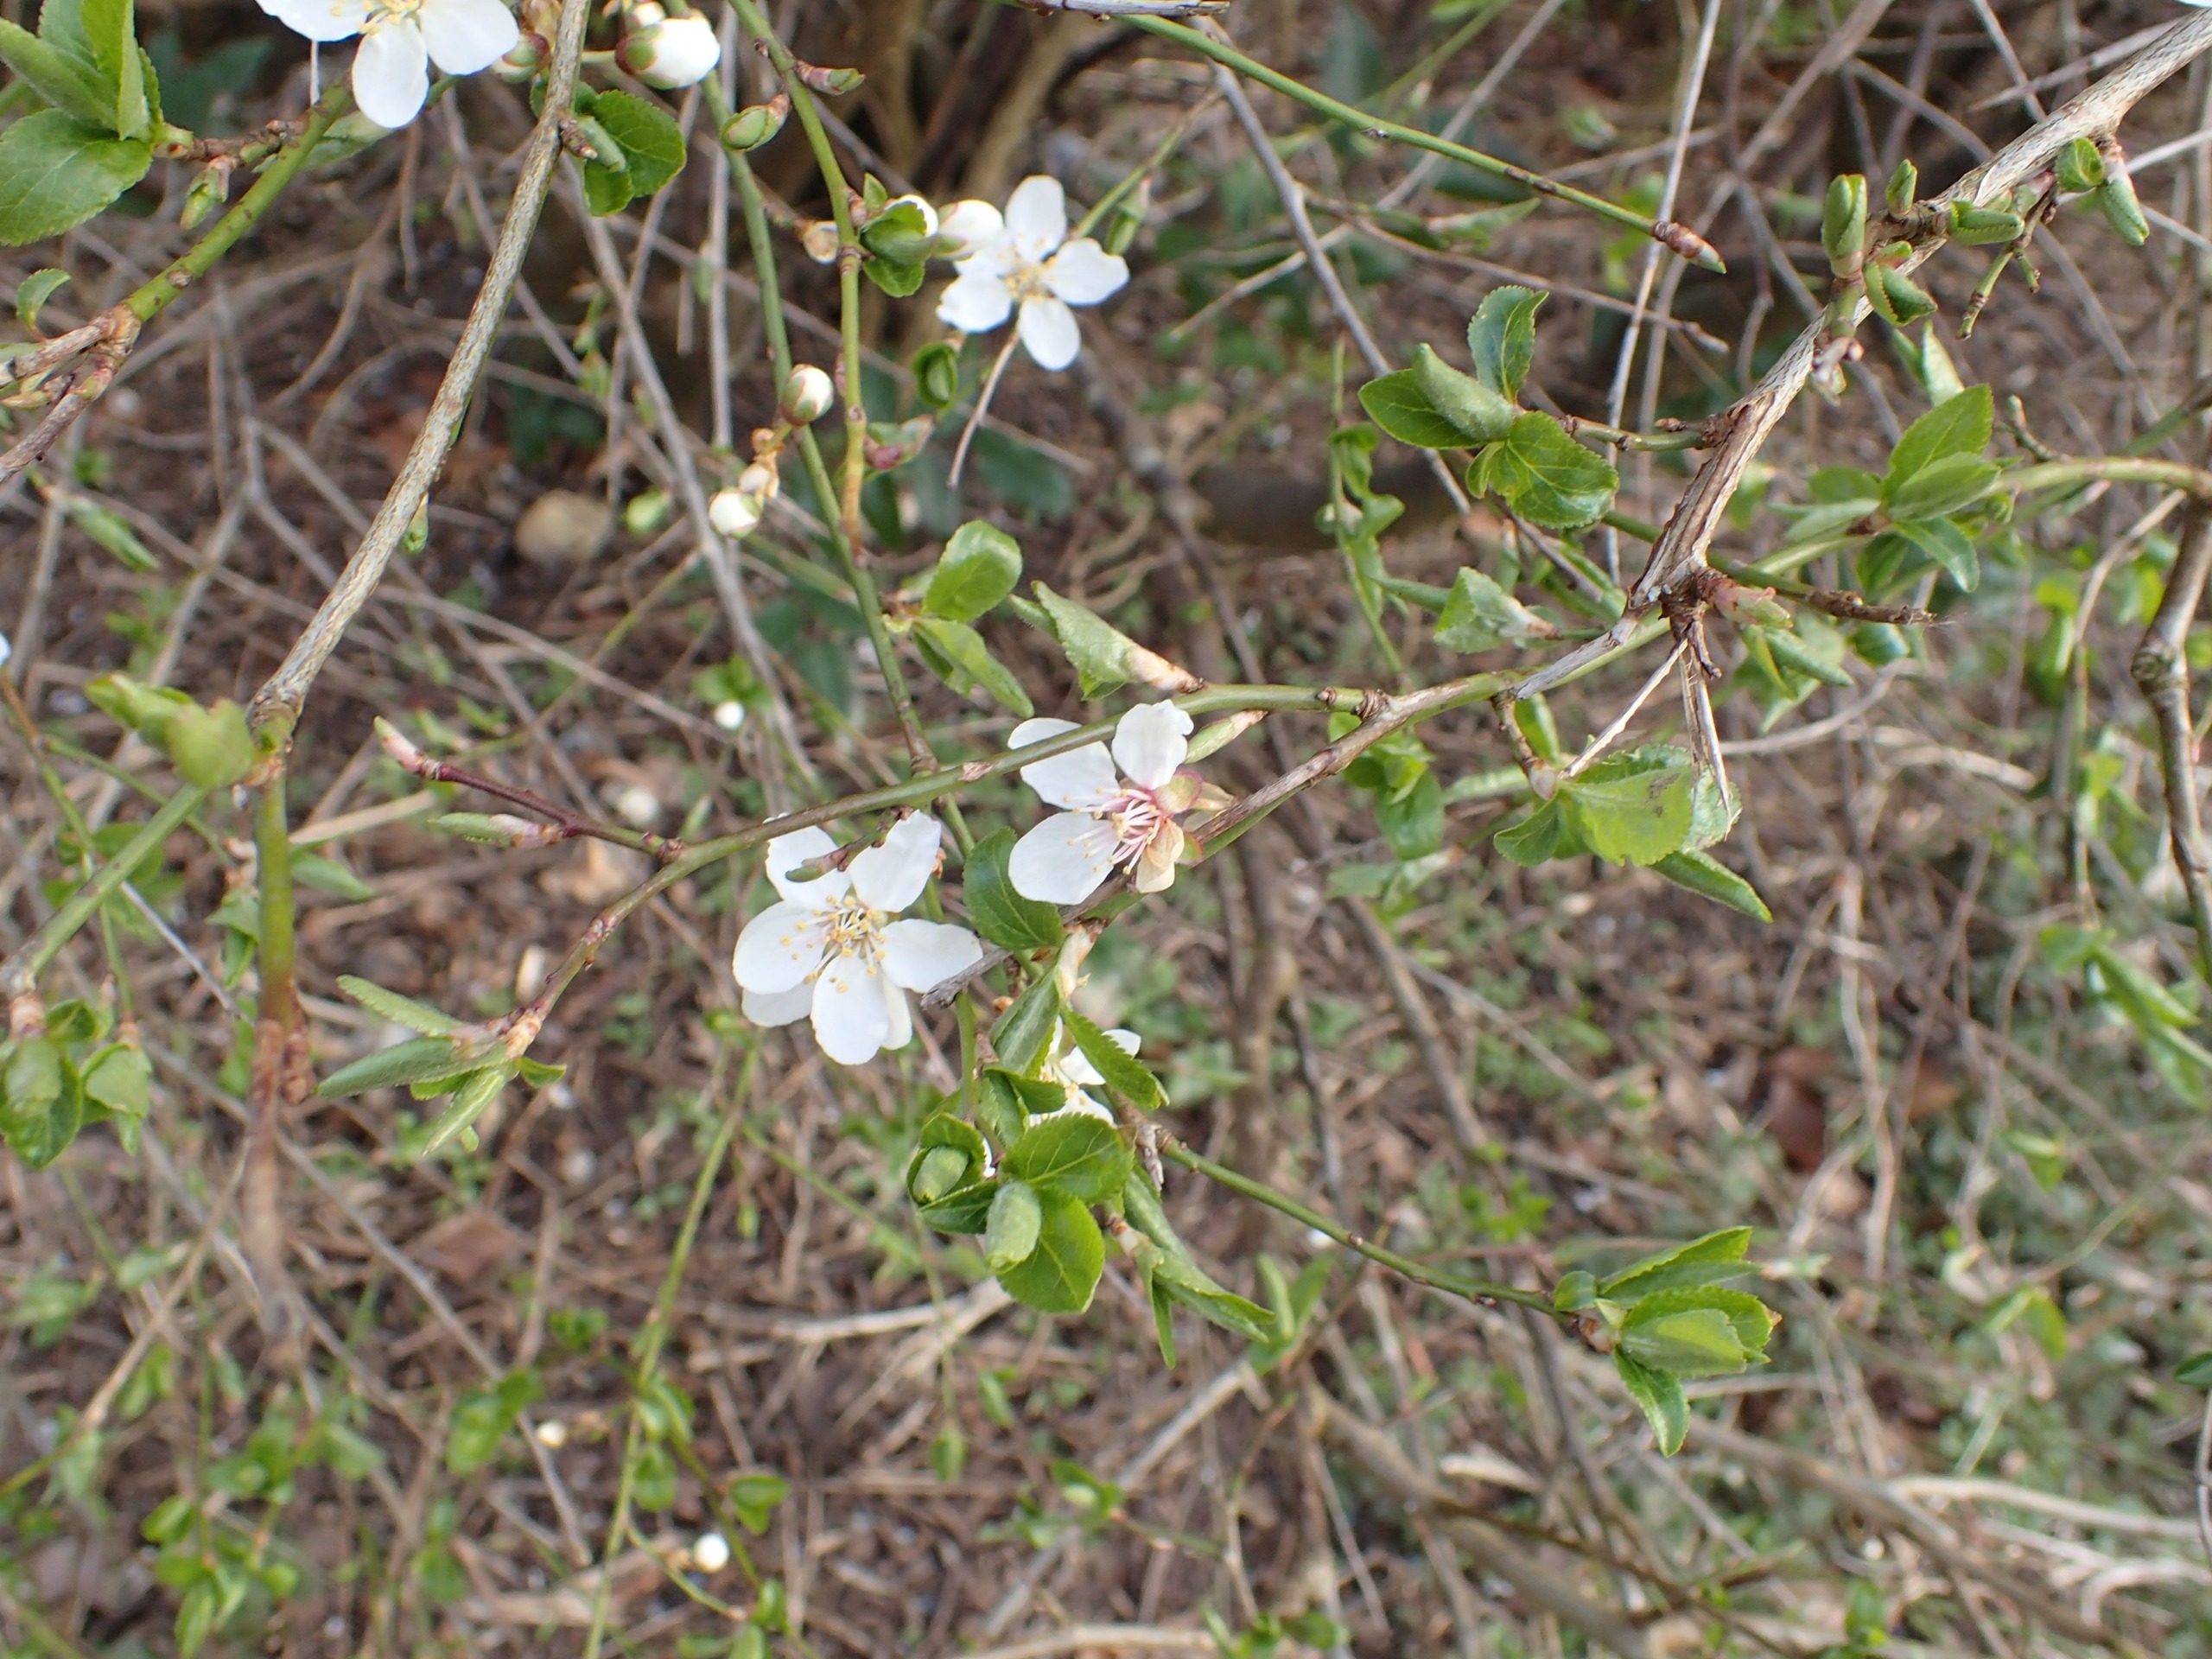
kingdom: Plantae
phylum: Tracheophyta
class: Magnoliopsida
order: Rosales
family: Rosaceae
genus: Prunus
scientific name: Prunus cerasifera
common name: Mirabel
